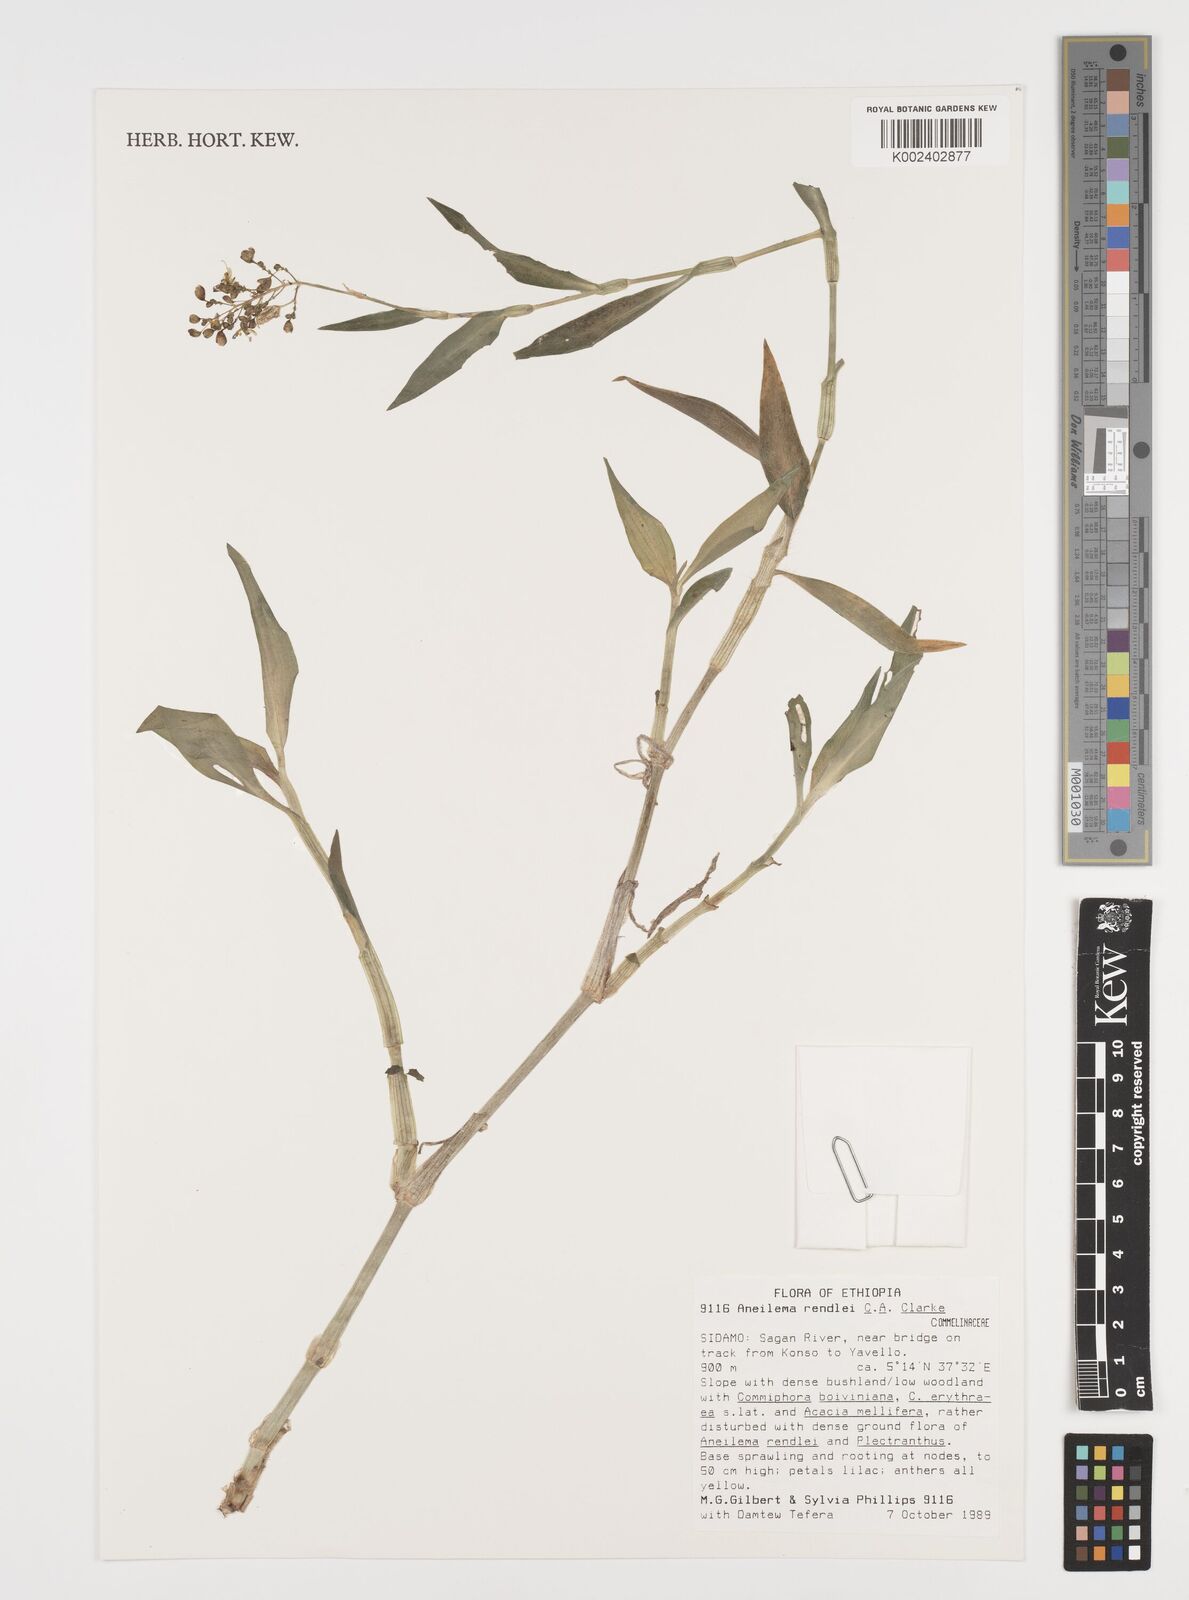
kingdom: Plantae
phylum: Tracheophyta
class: Liliopsida
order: Commelinales
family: Commelinaceae
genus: Aneilema
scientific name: Aneilema rendlei
